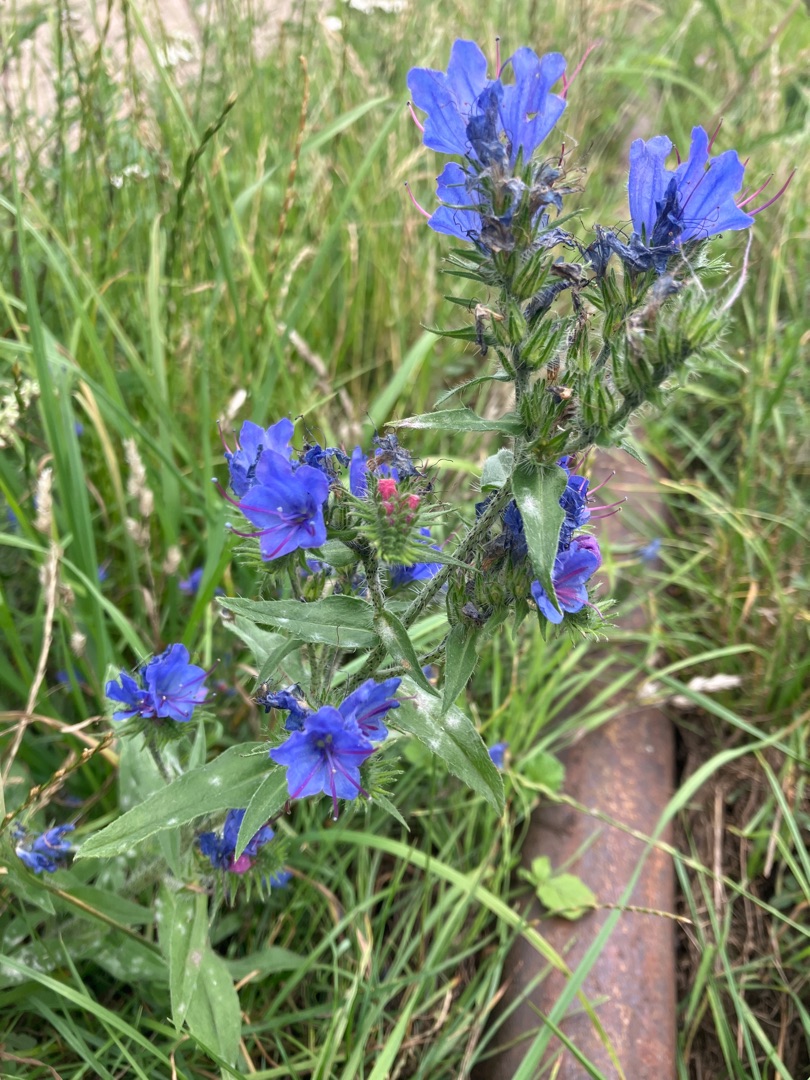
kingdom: Plantae
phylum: Tracheophyta
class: Magnoliopsida
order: Boraginales
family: Boraginaceae
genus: Echium
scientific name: Echium vulgare
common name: Slangehoved
